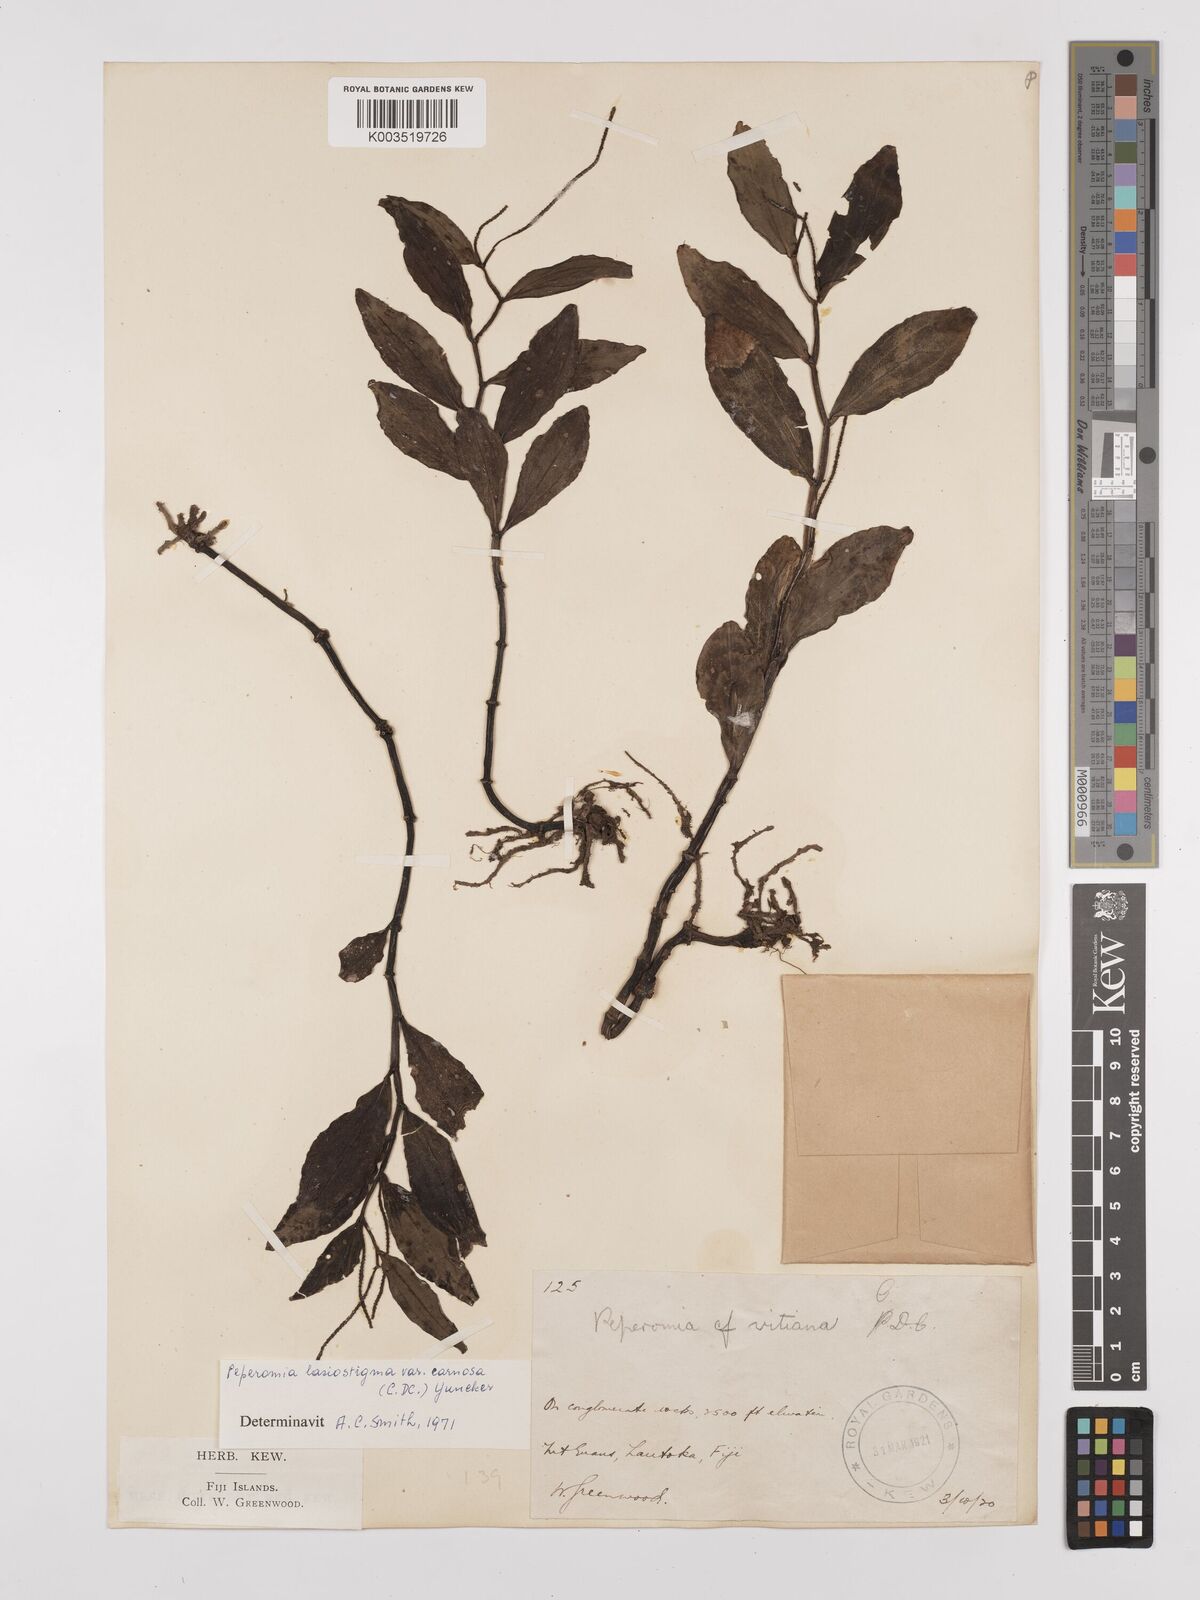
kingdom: Plantae
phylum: Tracheophyta
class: Magnoliopsida
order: Piperales
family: Piperaceae
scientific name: Piperaceae
